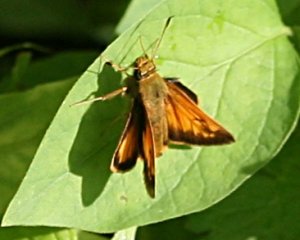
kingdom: Animalia
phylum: Arthropoda
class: Insecta
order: Lepidoptera
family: Hesperiidae
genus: Lon
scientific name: Lon hobomok
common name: Hobomok Skipper
